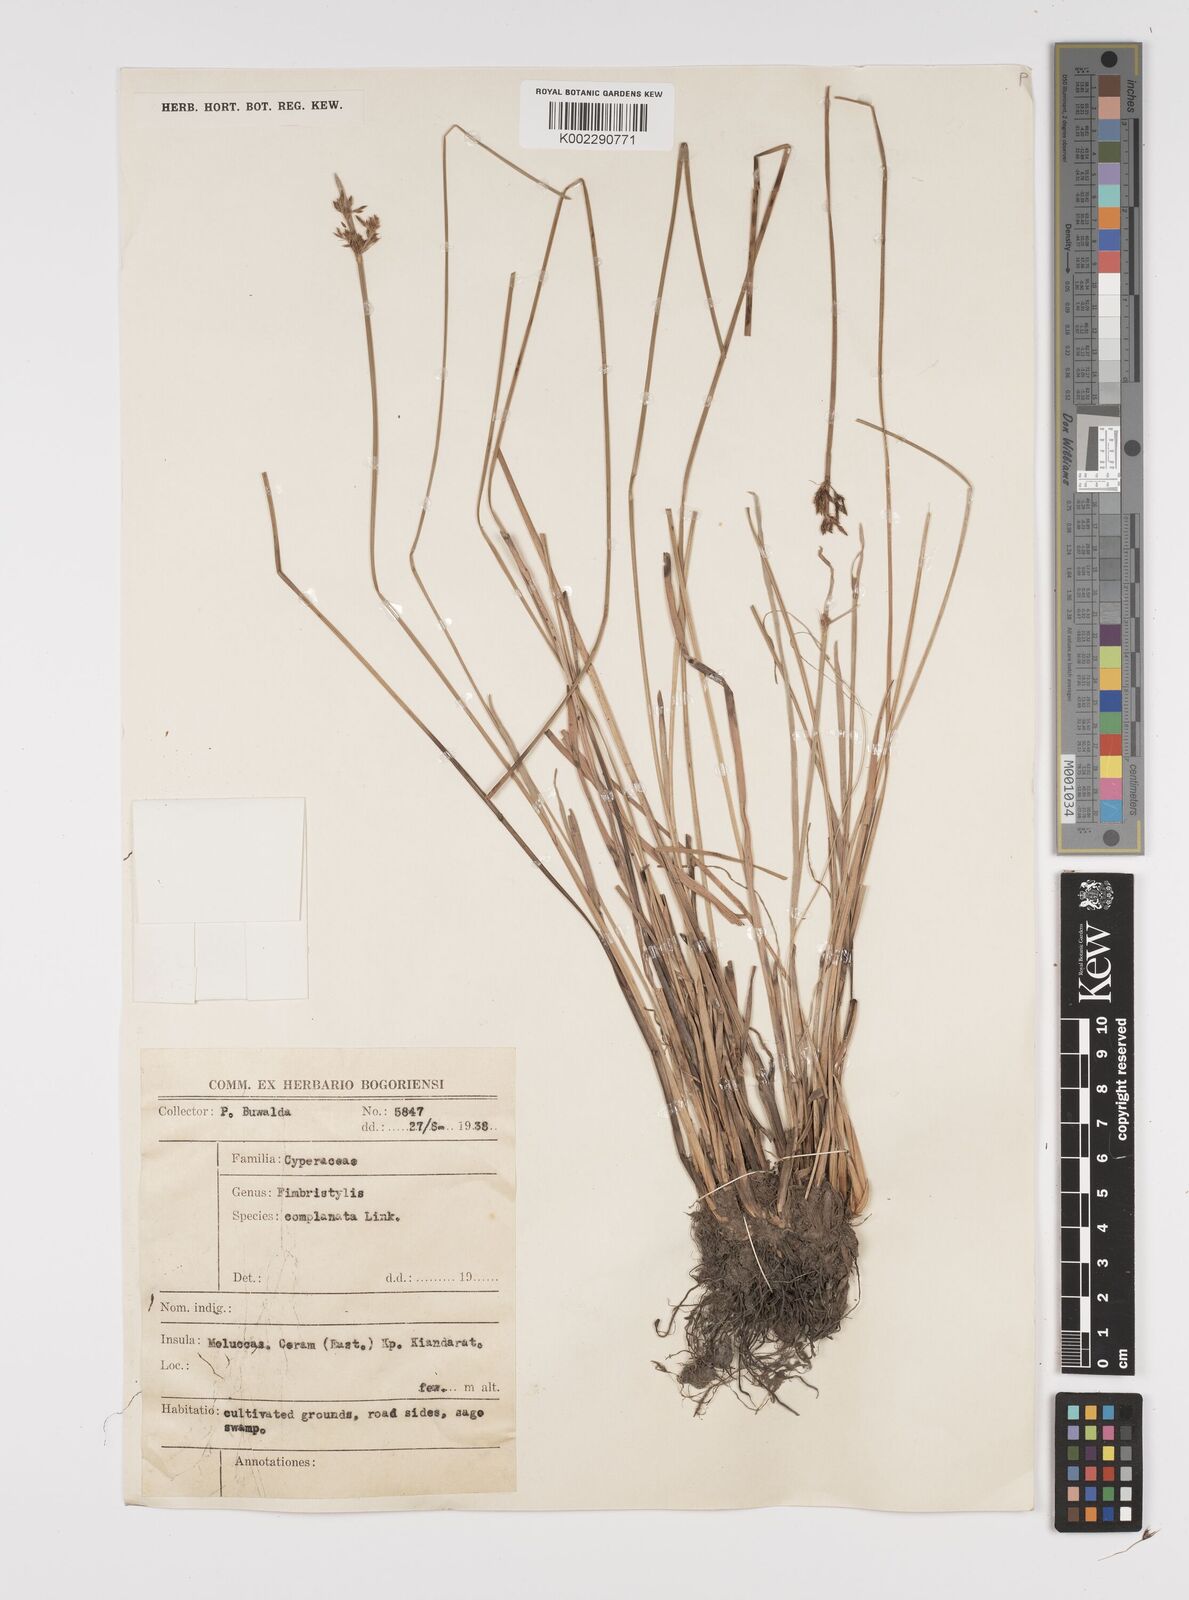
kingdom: Plantae
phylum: Tracheophyta
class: Liliopsida
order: Poales
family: Cyperaceae
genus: Fimbristylis
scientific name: Fimbristylis complanata
